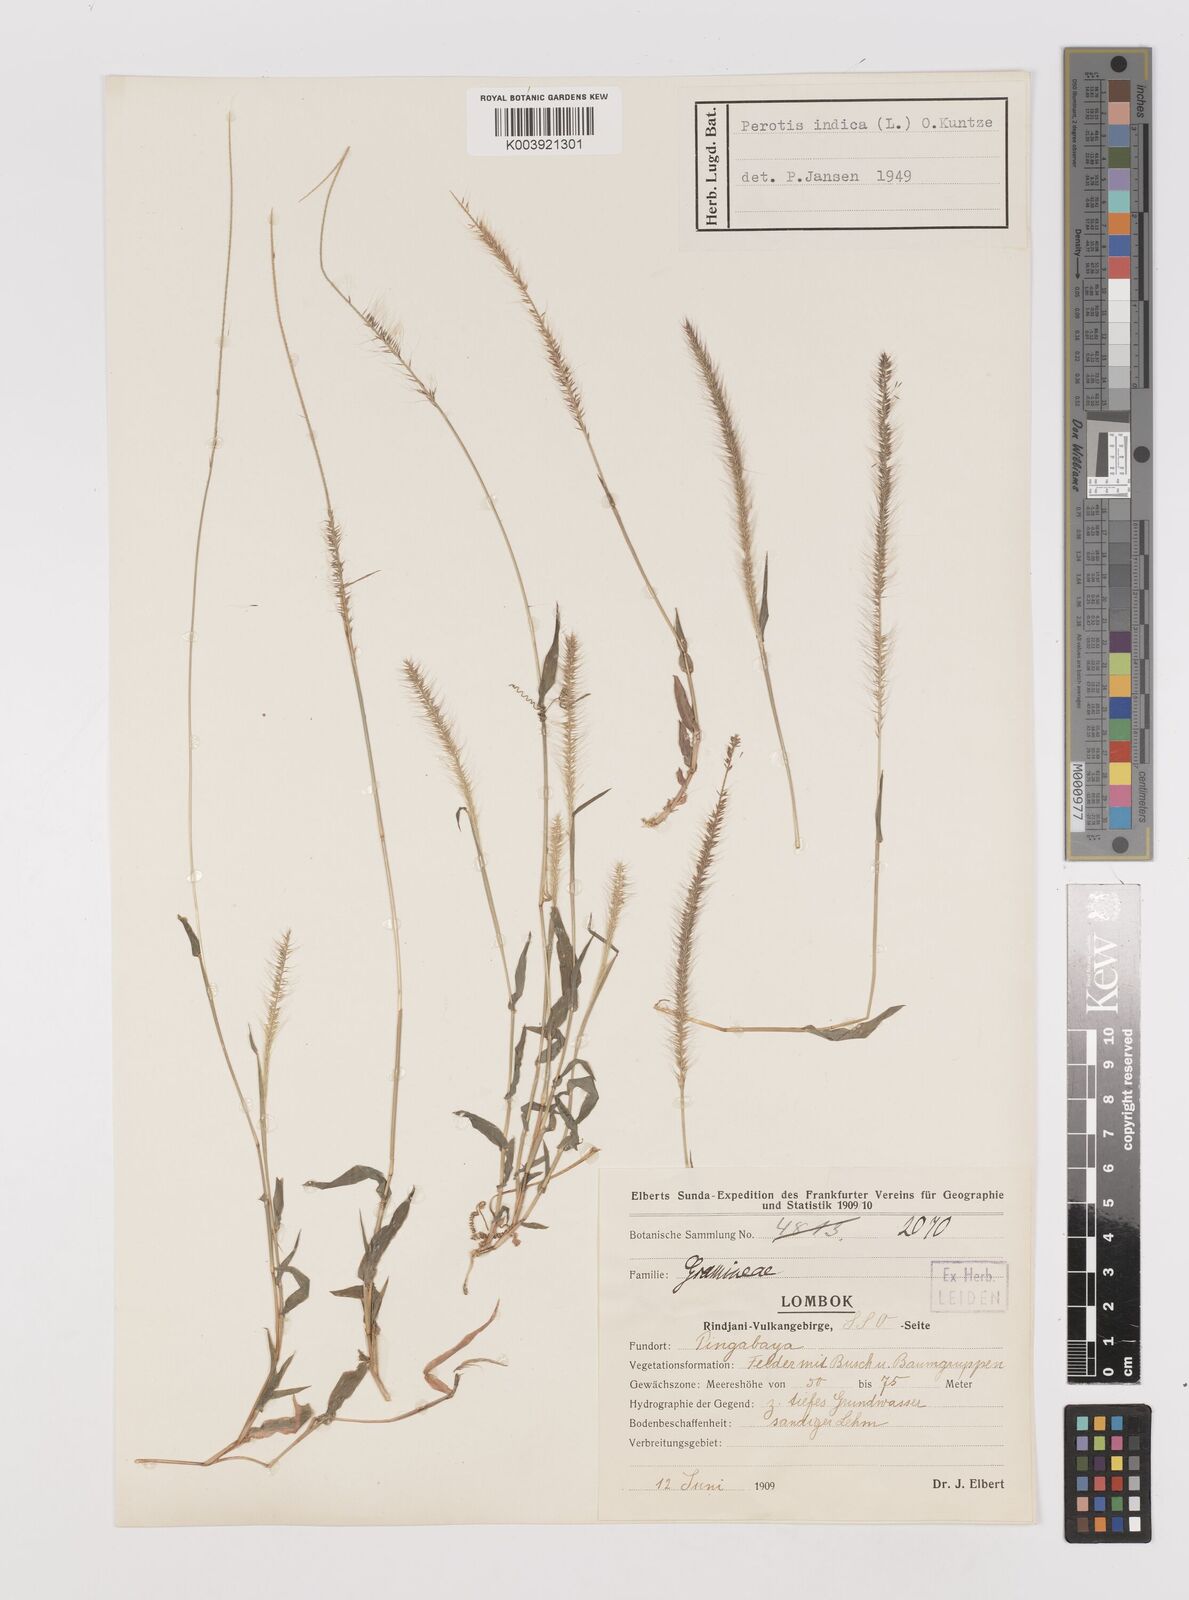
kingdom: Plantae
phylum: Tracheophyta
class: Liliopsida
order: Poales
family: Poaceae
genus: Perotis
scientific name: Perotis hordeiformis
